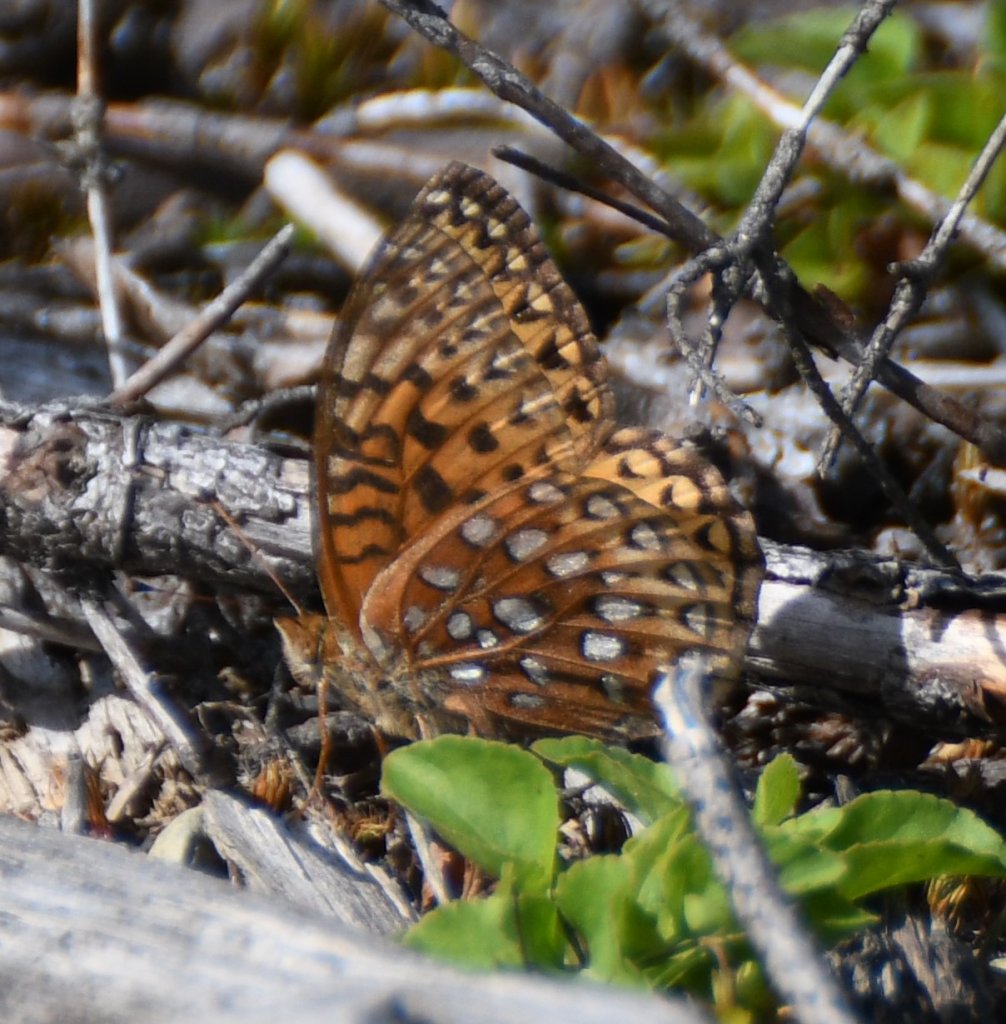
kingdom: Animalia
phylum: Arthropoda
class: Insecta
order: Lepidoptera
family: Nymphalidae
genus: Speyeria
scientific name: Speyeria aphrodite
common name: Aphrodite Fritillary
